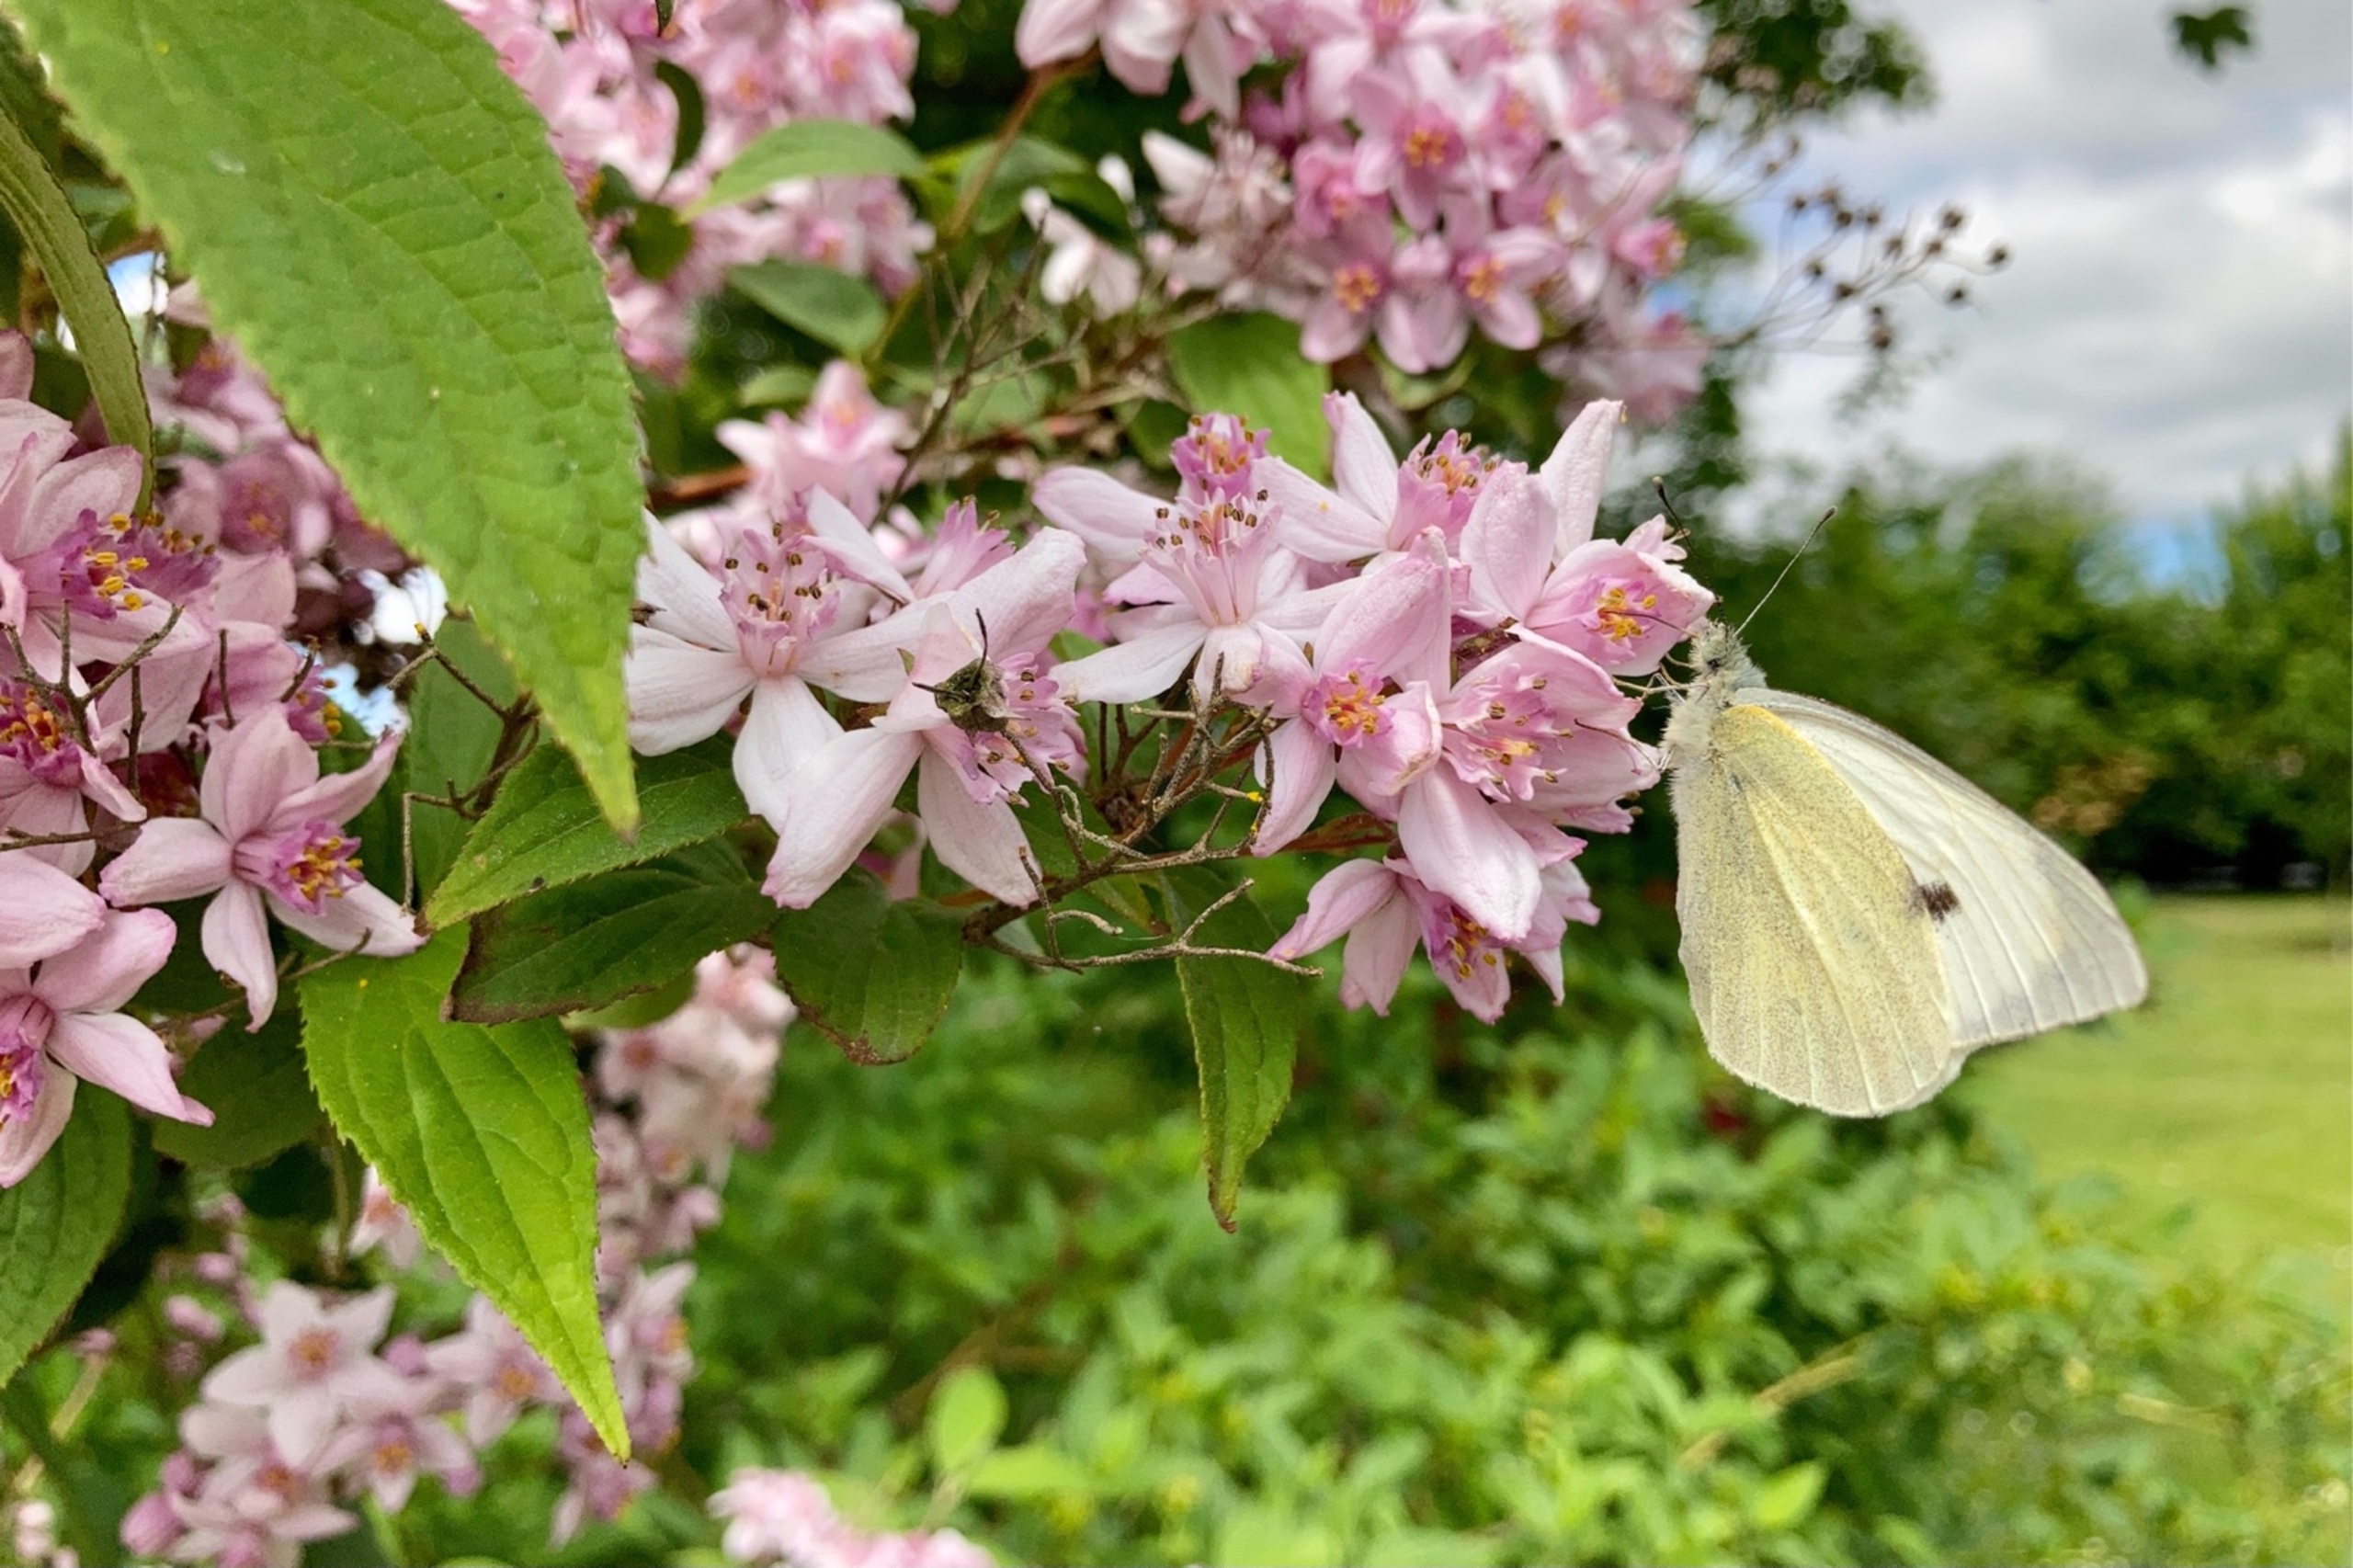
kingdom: Animalia
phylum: Arthropoda
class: Insecta
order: Lepidoptera
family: Pieridae
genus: Pieris
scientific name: Pieris brassicae
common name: Stor kålsommerfugl
